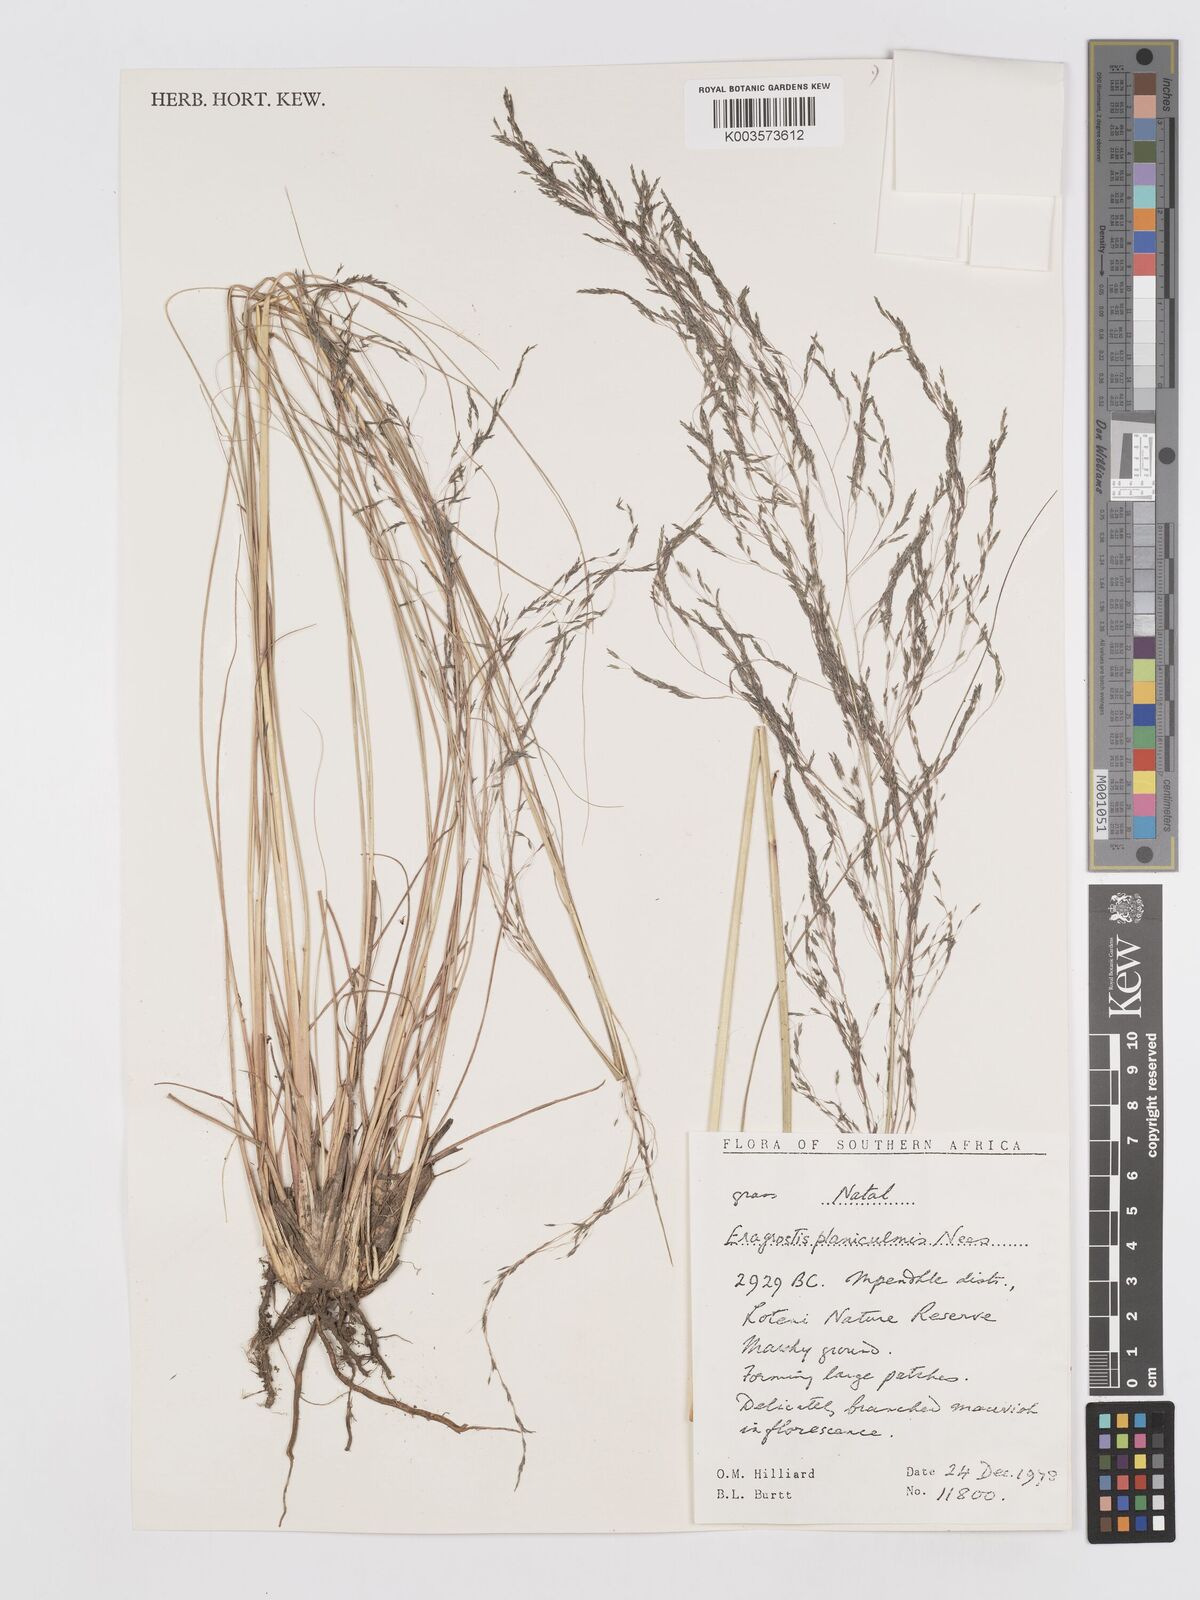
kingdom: Plantae
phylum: Tracheophyta
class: Liliopsida
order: Poales
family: Poaceae
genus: Eragrostis
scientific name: Eragrostis planiculmis
